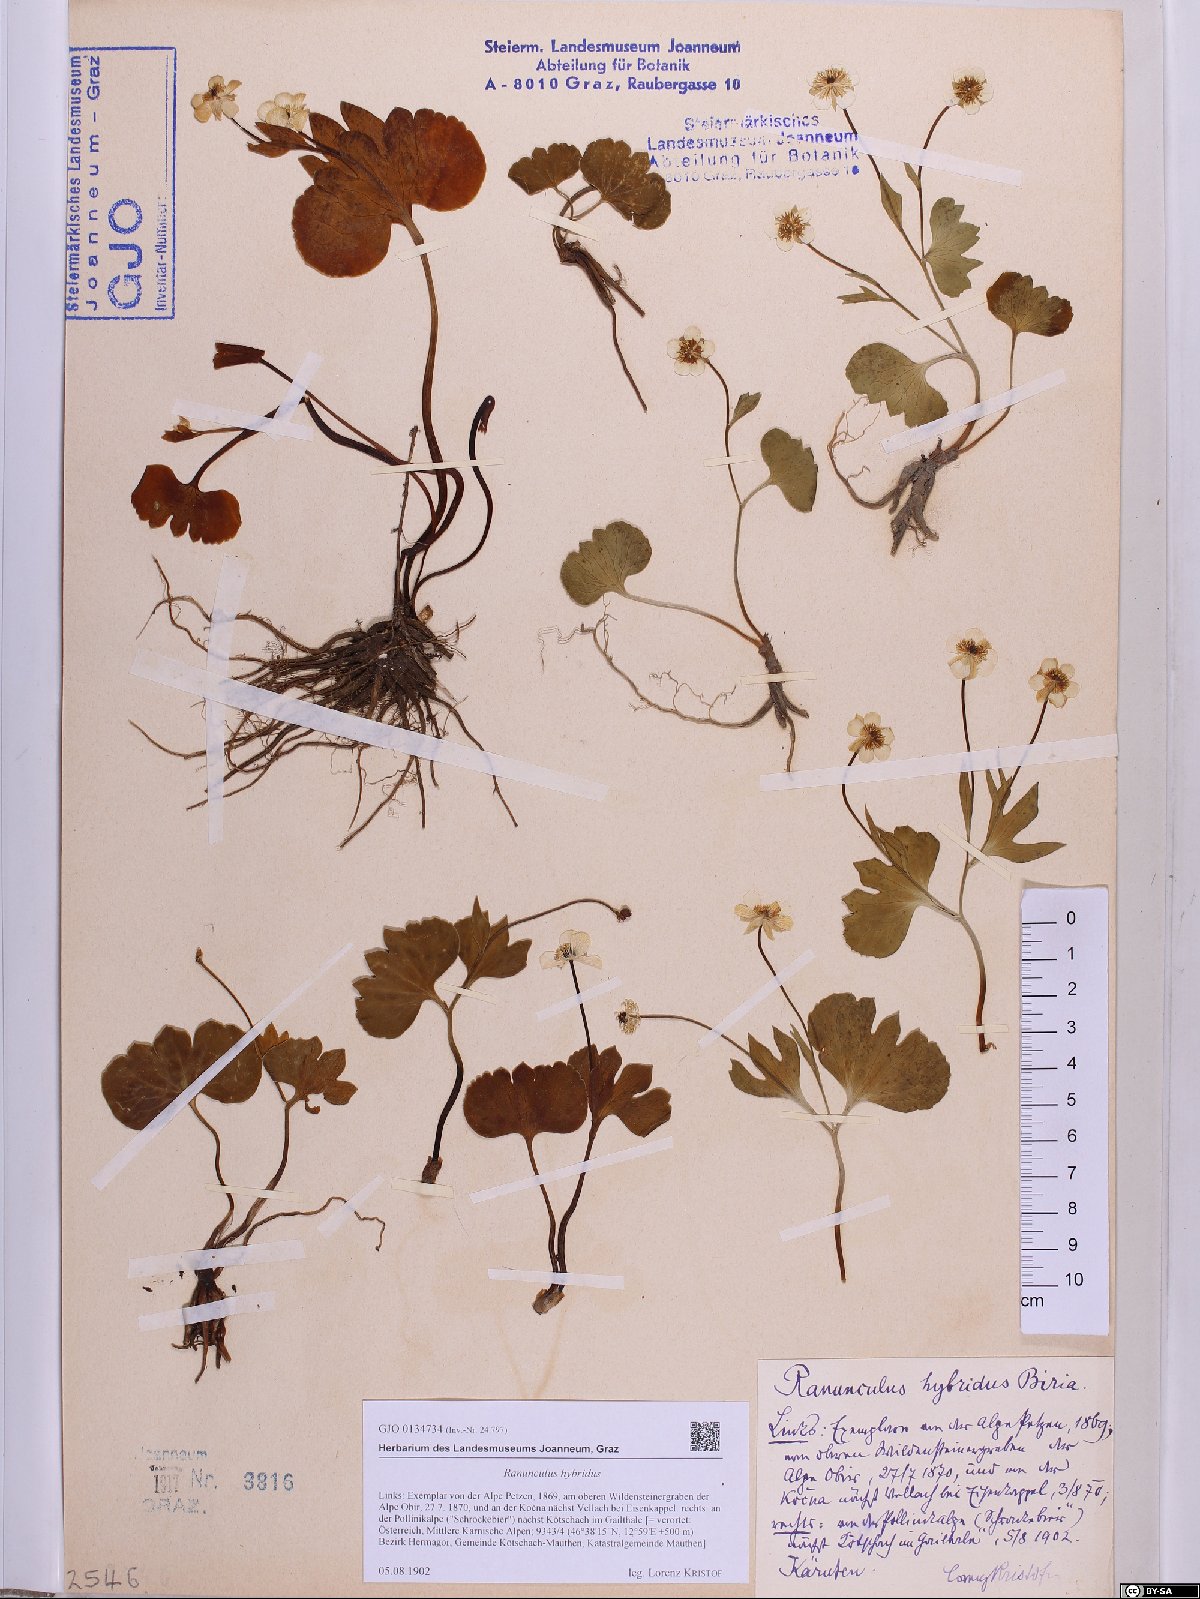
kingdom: Plantae
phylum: Tracheophyta
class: Magnoliopsida
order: Ranunculales
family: Ranunculaceae
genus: Ranunculus
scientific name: Ranunculus hybridus
